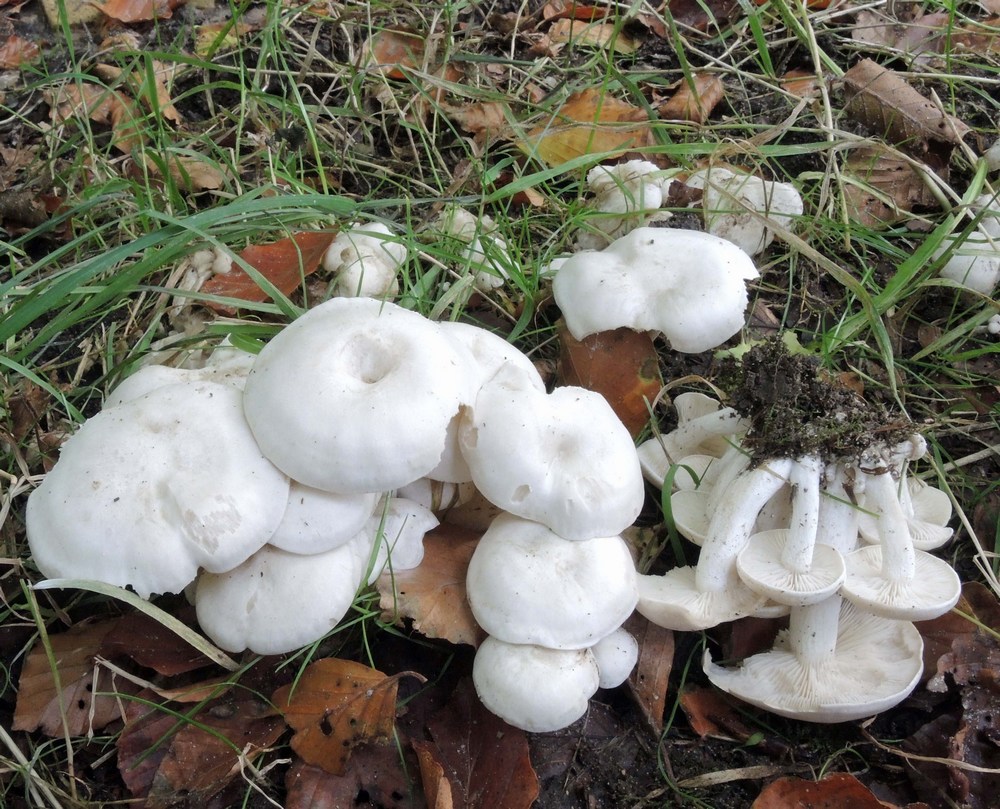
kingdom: Fungi
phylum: Basidiomycota
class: Agaricomycetes
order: Agaricales
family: Tricholomataceae
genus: Leucocybe
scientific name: Leucocybe connata
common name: knippe-tragthat
